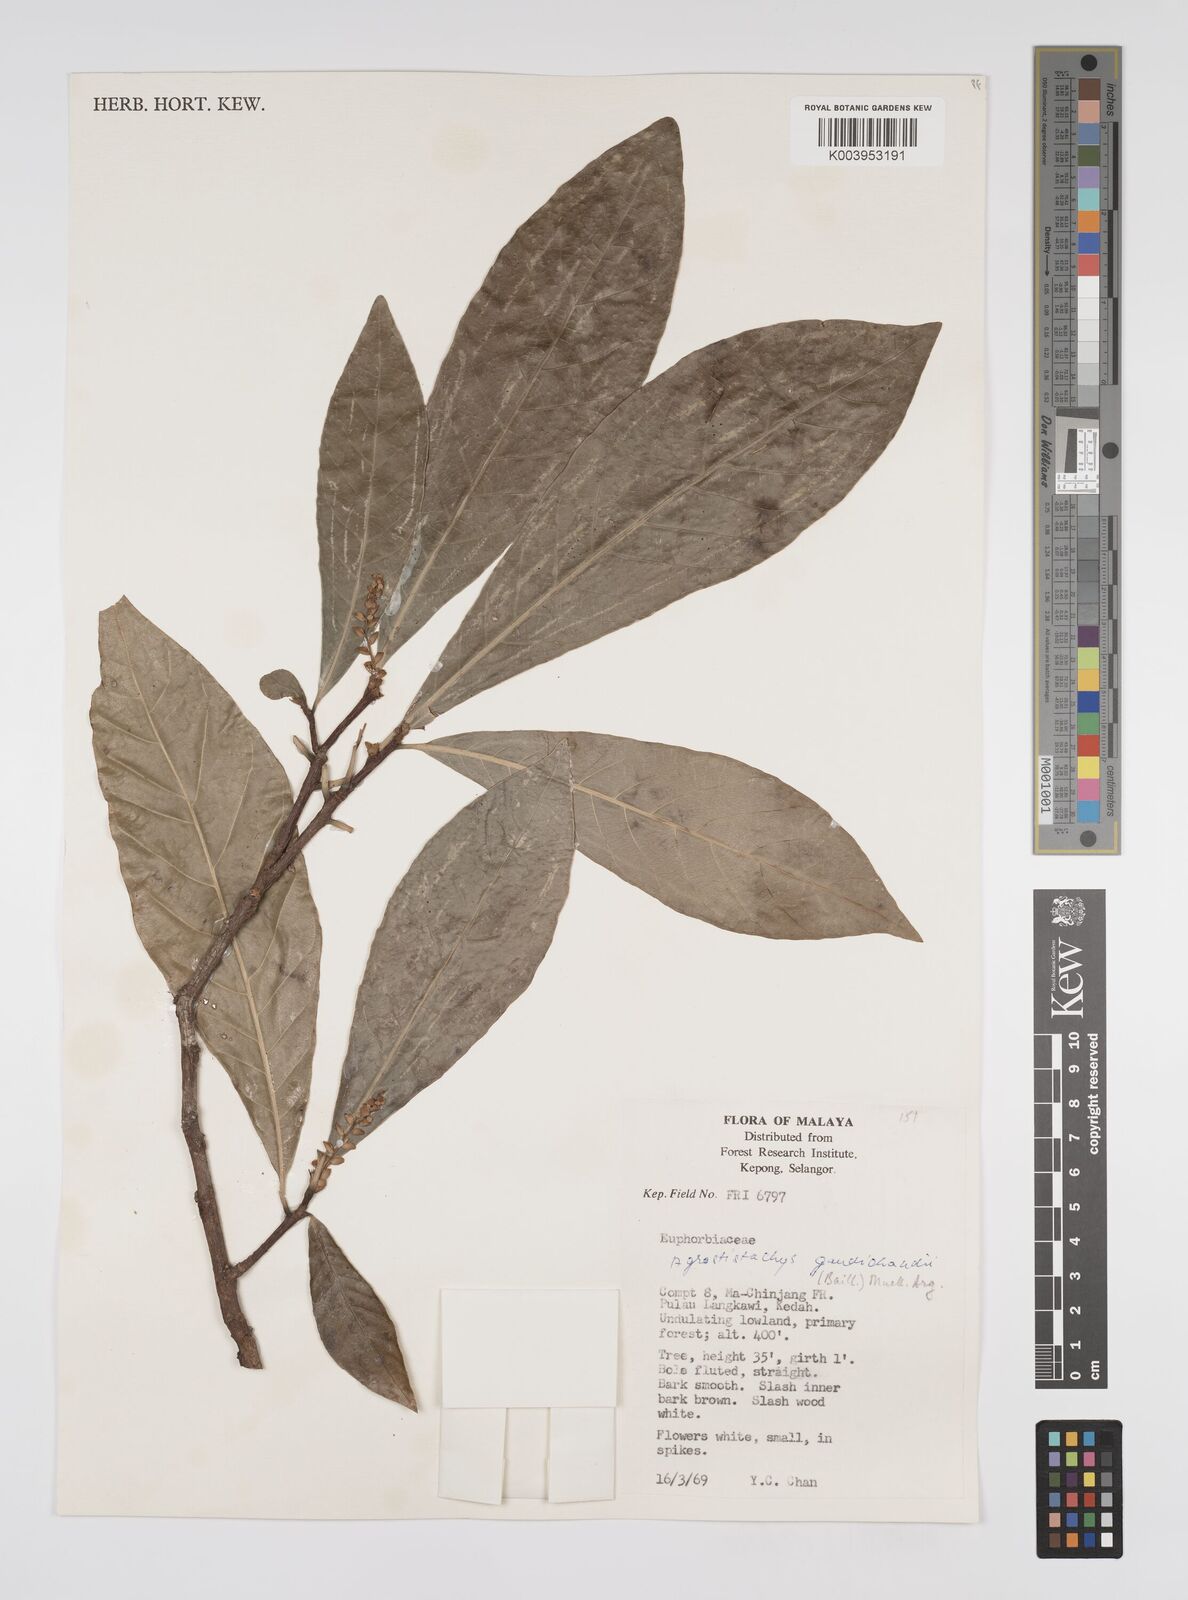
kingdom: Plantae
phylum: Tracheophyta
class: Magnoliopsida
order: Malpighiales
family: Euphorbiaceae
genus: Agrostistachys
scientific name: Agrostistachys gaudichaudii
